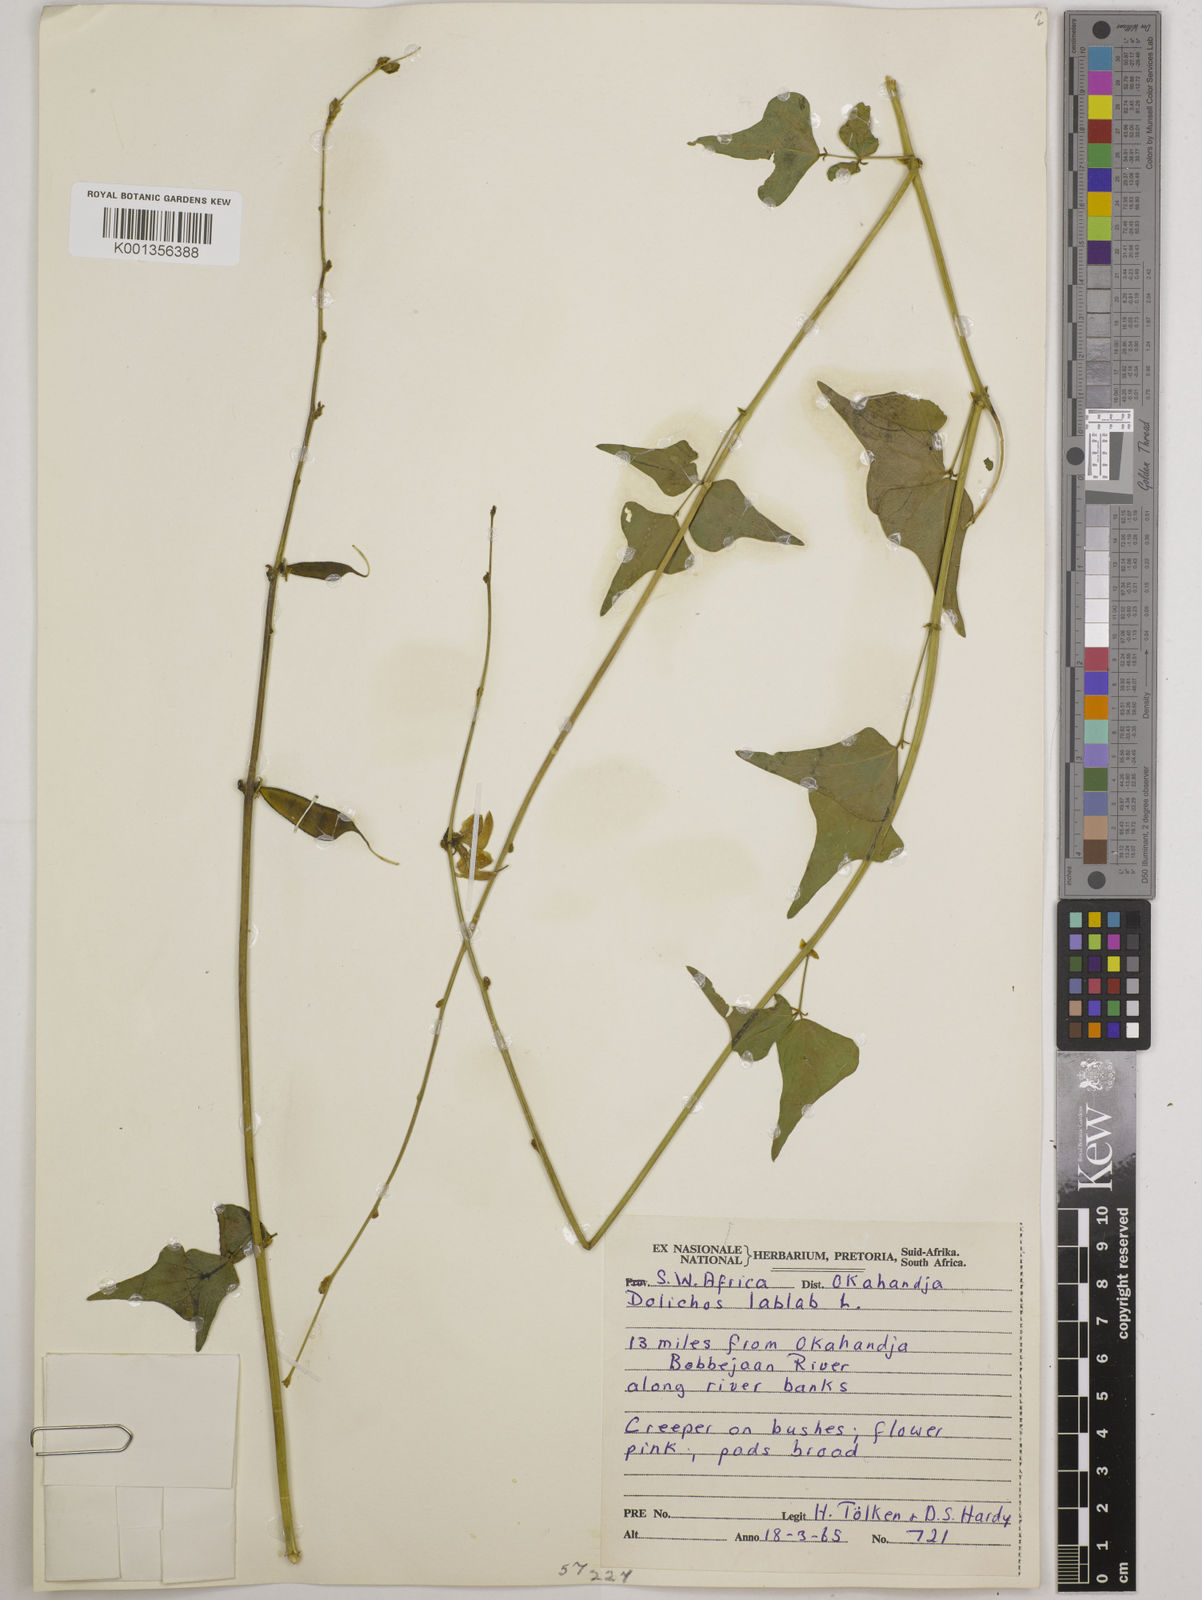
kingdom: Plantae
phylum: Tracheophyta
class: Magnoliopsida
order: Fabales
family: Fabaceae
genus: Lablab
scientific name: Lablab purpureus
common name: Lablab-bean
